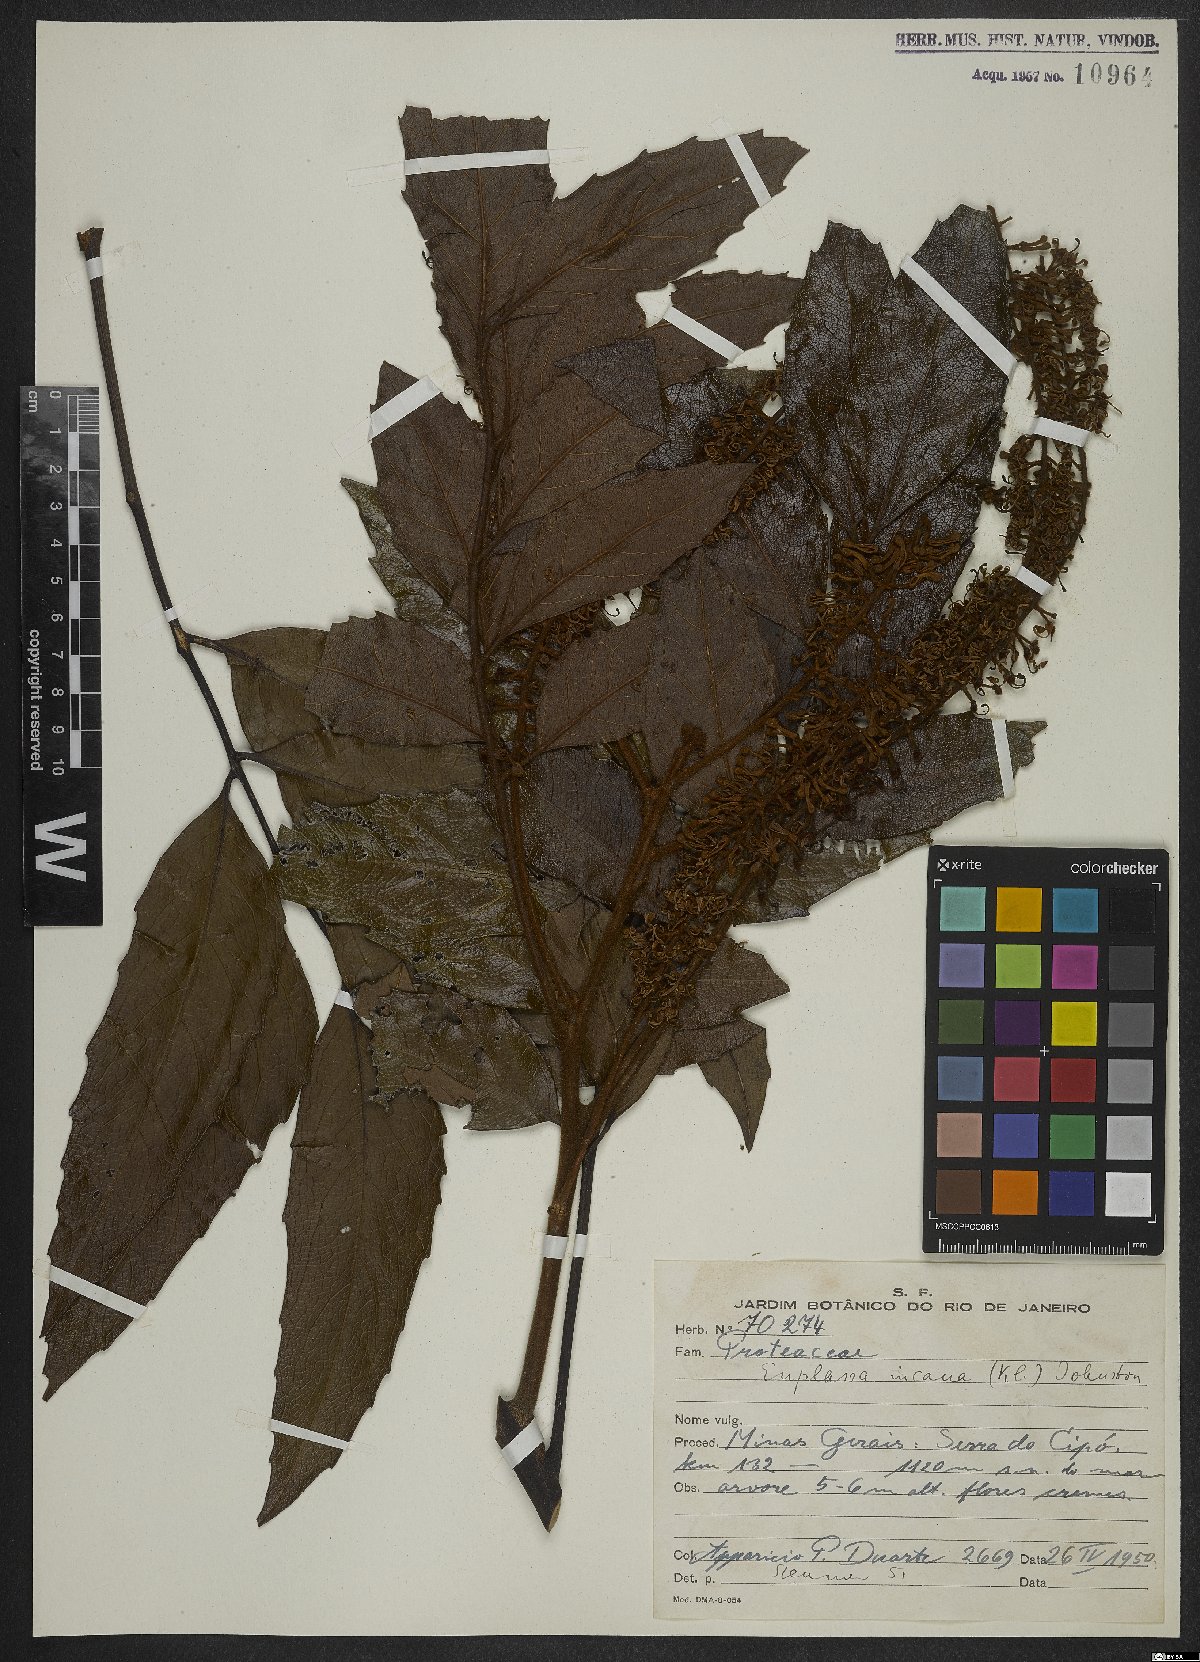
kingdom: Plantae
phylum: Tracheophyta
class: Magnoliopsida
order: Proteales
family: Proteaceae
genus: Euplassa
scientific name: Euplassa incana
